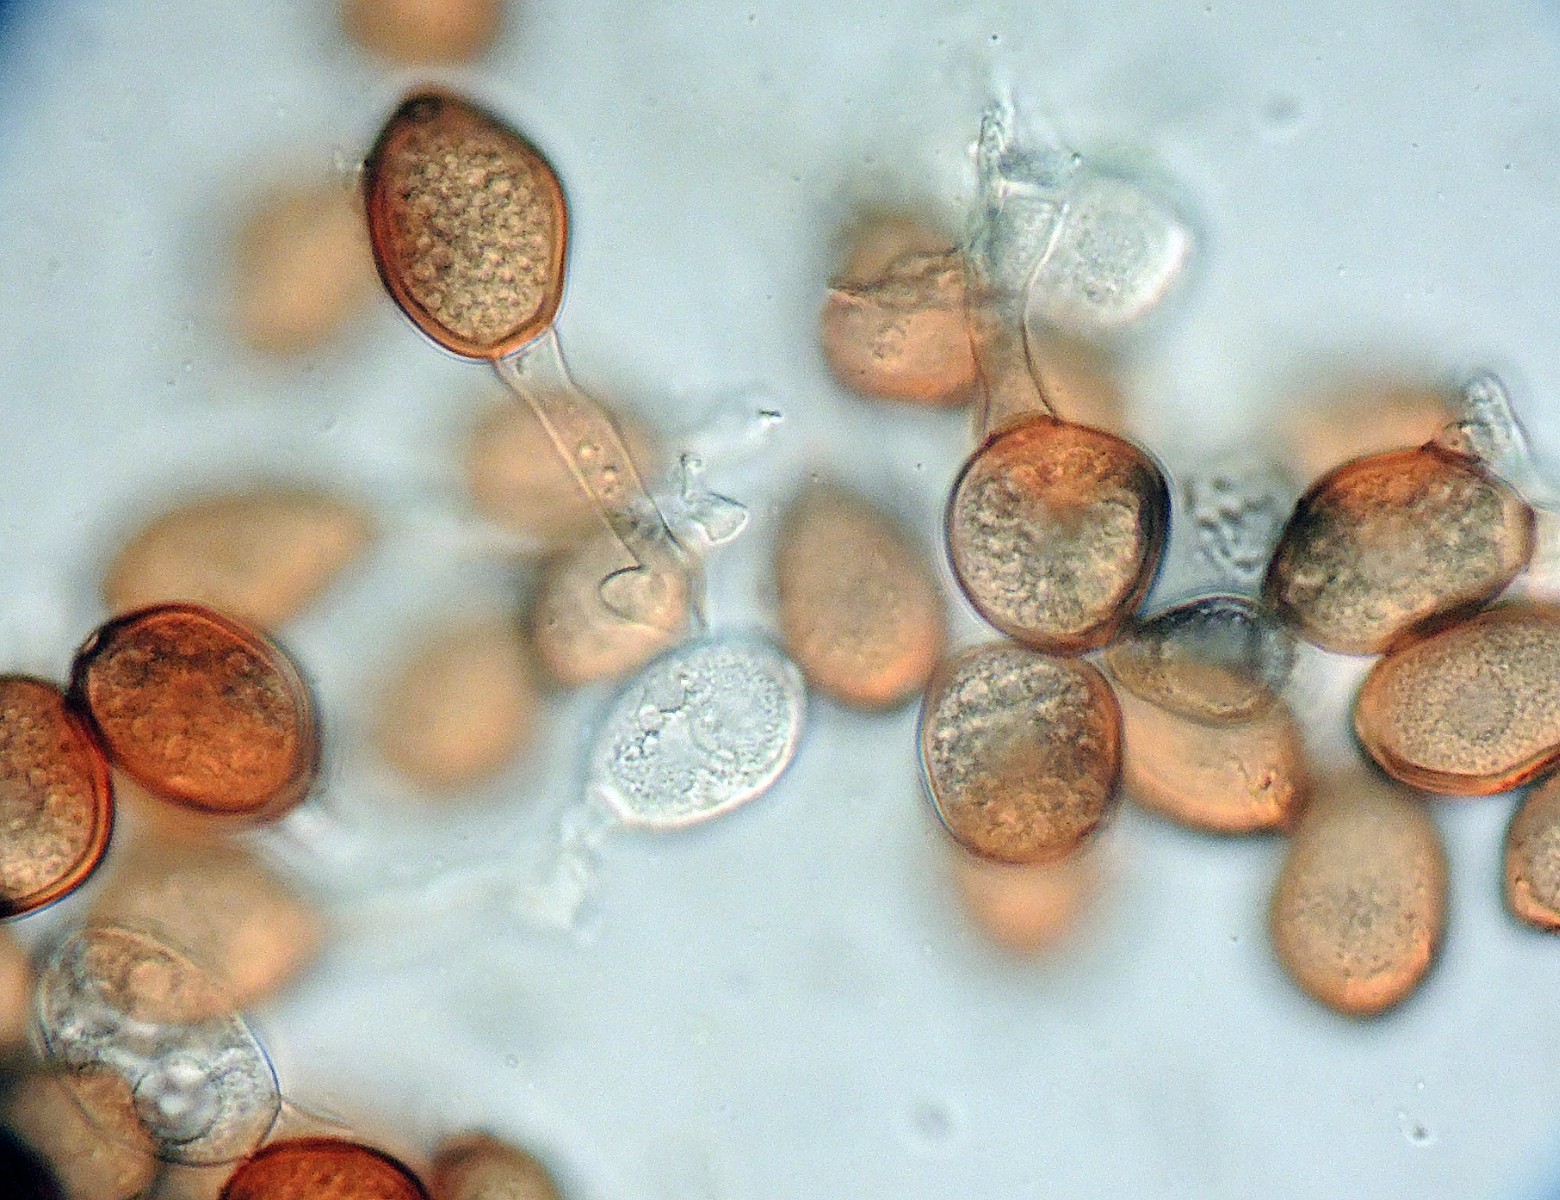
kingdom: Fungi
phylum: Basidiomycota
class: Pucciniomycetes
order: Pucciniales
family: Pucciniaceae
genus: Uromyces
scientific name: Uromyces trifolii
